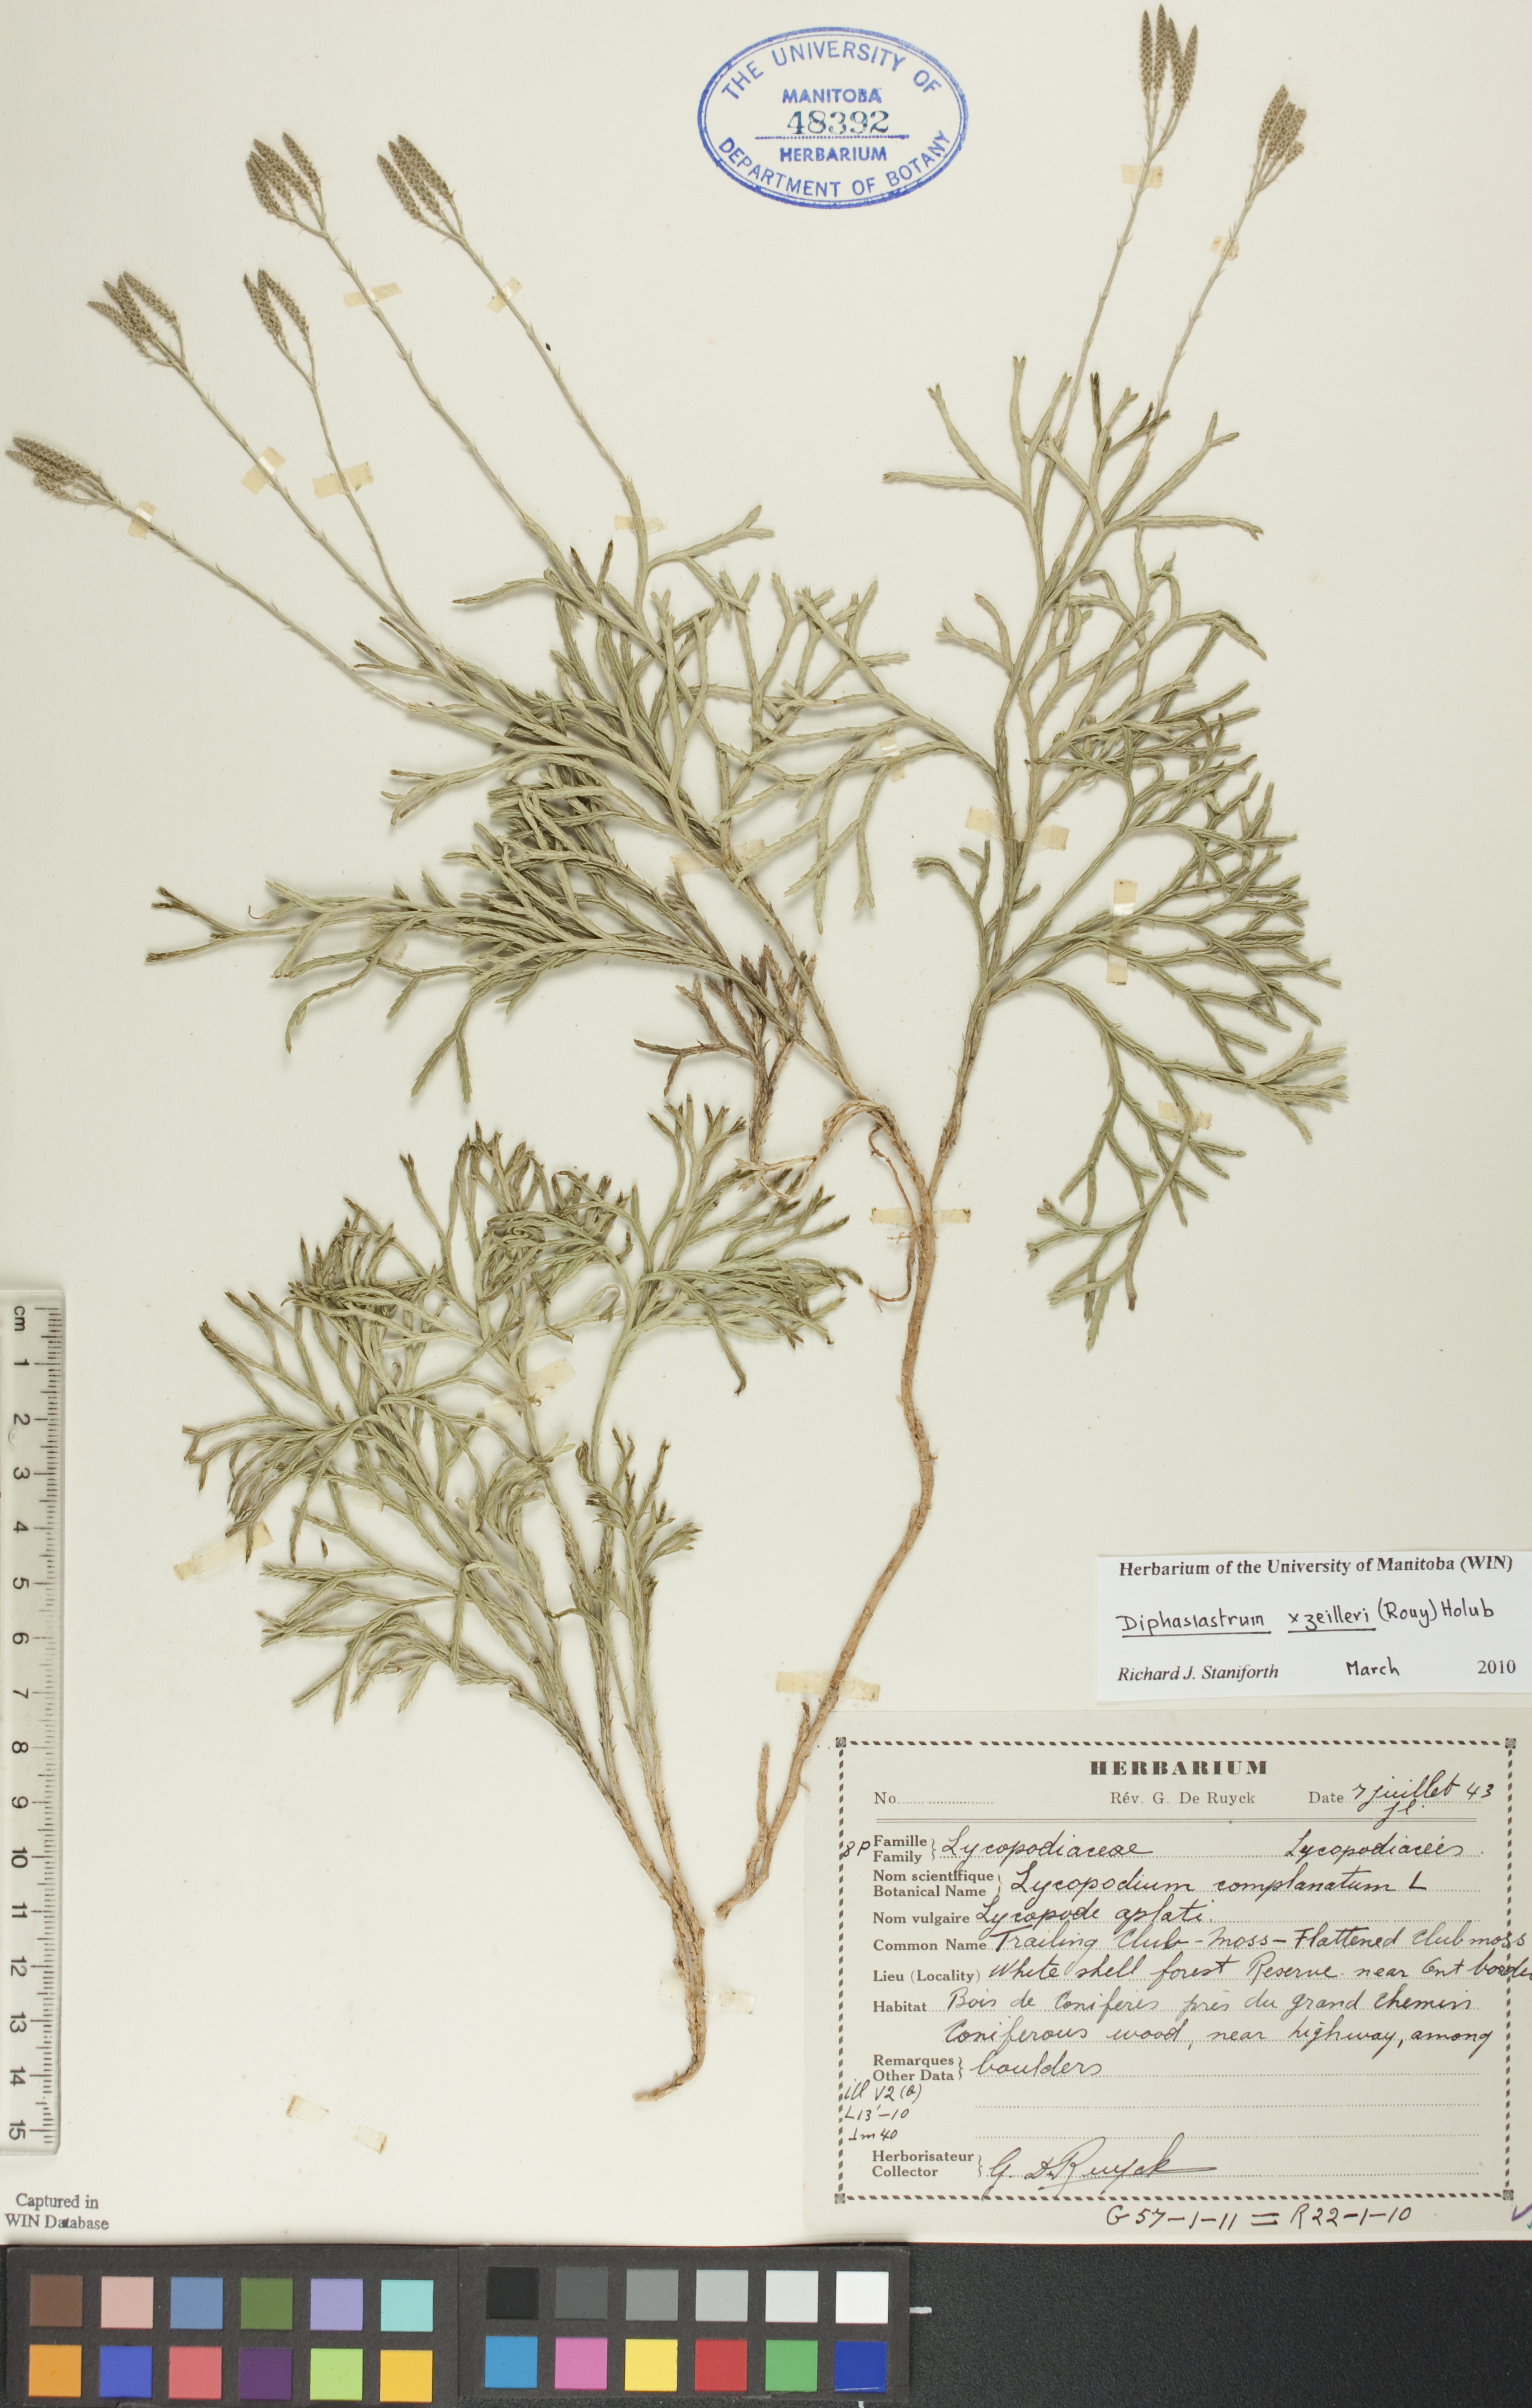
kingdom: Plantae
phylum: Tracheophyta
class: Lycopodiopsida
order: Lycopodiales
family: Lycopodiaceae
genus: Diphasiastrum
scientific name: Diphasiastrum zeilleri
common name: Zeiller's clubmoss
